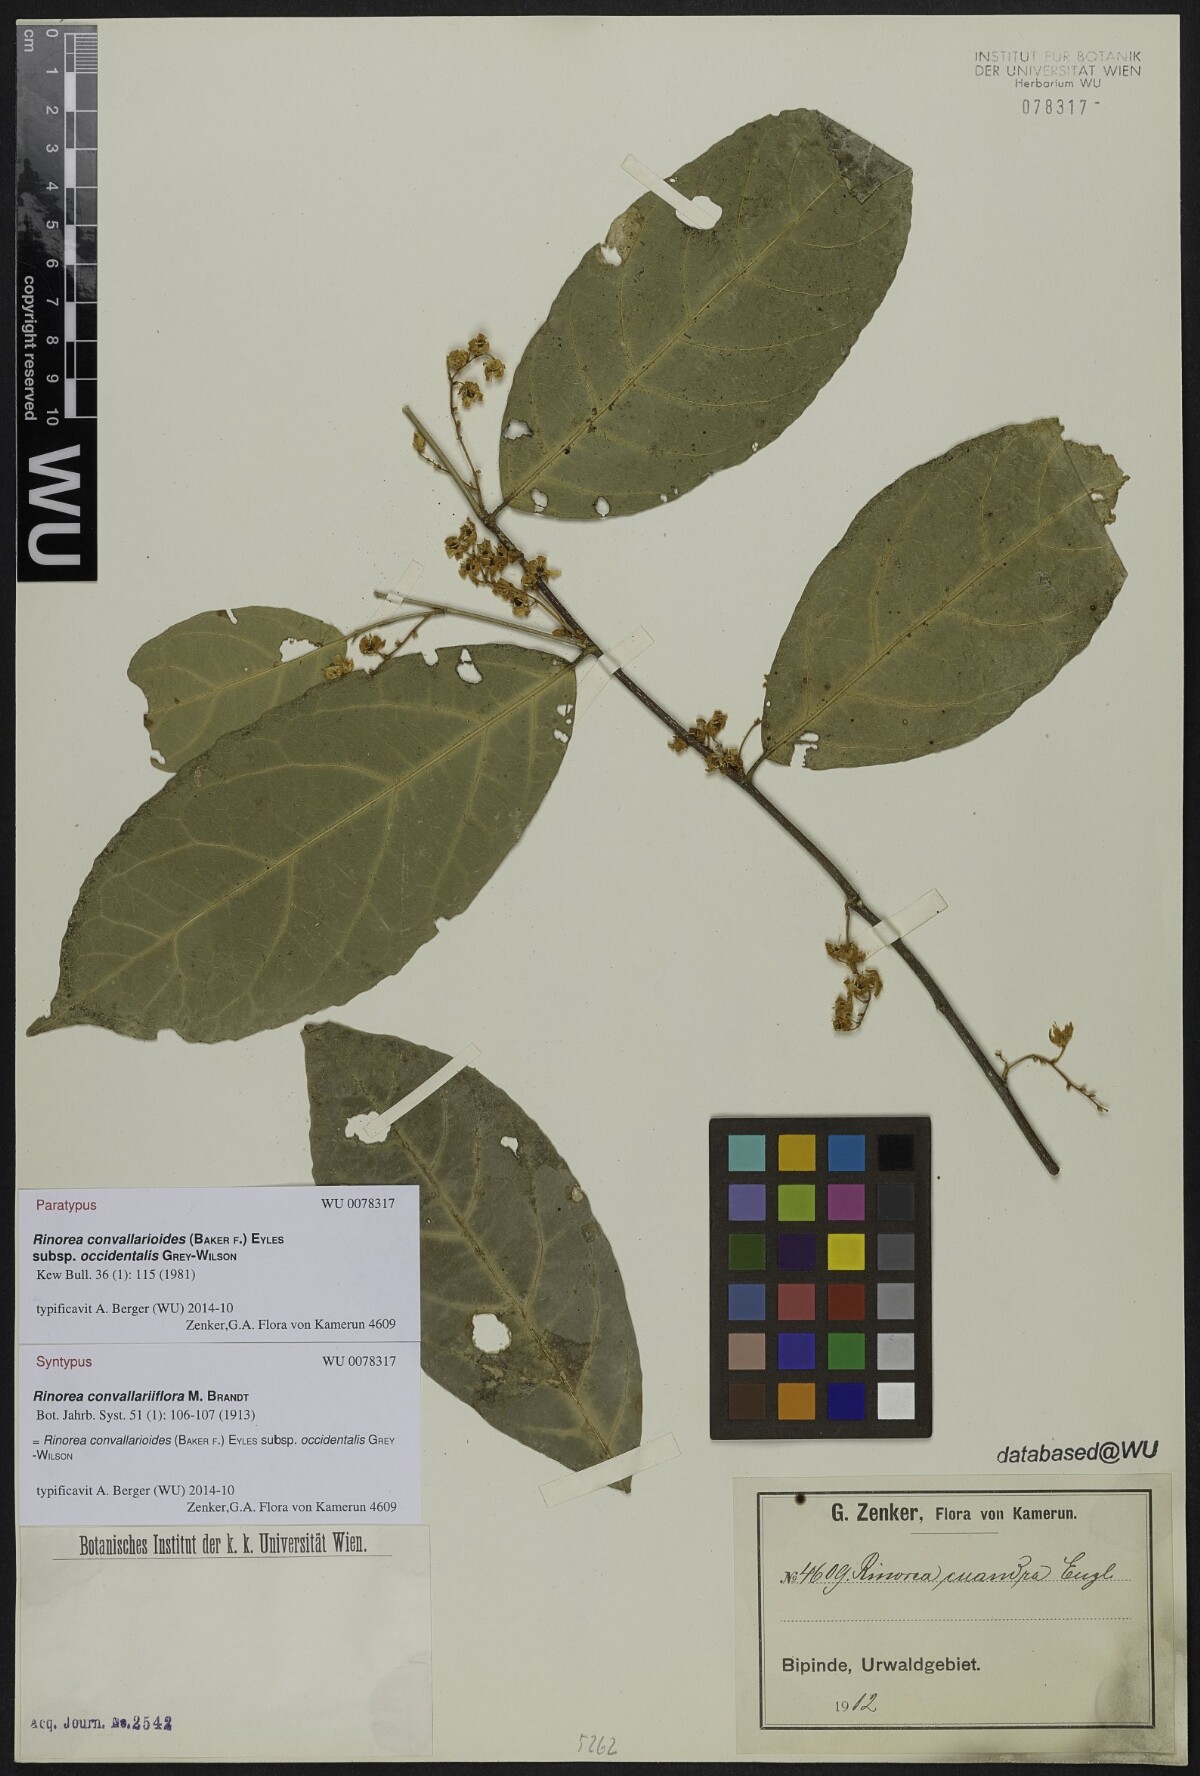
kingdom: Plantae
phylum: Tracheophyta
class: Magnoliopsida
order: Malpighiales
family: Violaceae
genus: Rinorea
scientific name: Rinorea convallarioides
